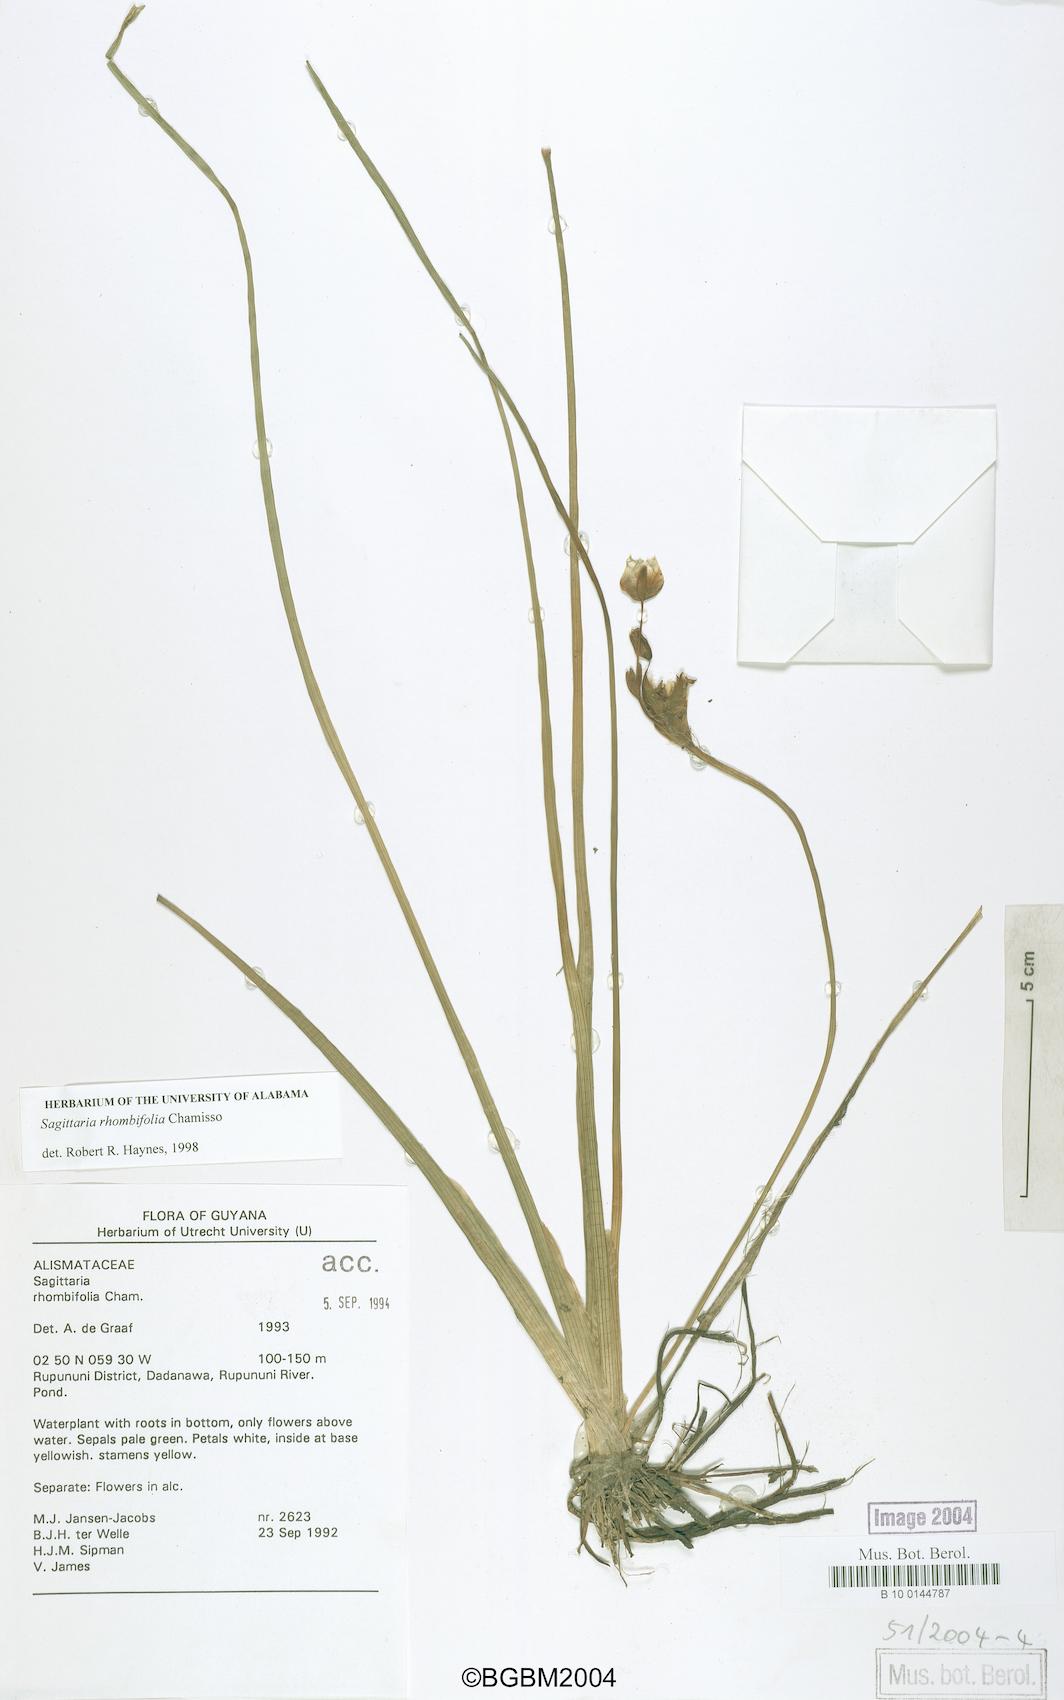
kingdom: Plantae
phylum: Tracheophyta
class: Liliopsida
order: Alismatales
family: Alismataceae
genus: Sagittaria
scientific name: Sagittaria rhombifolia
